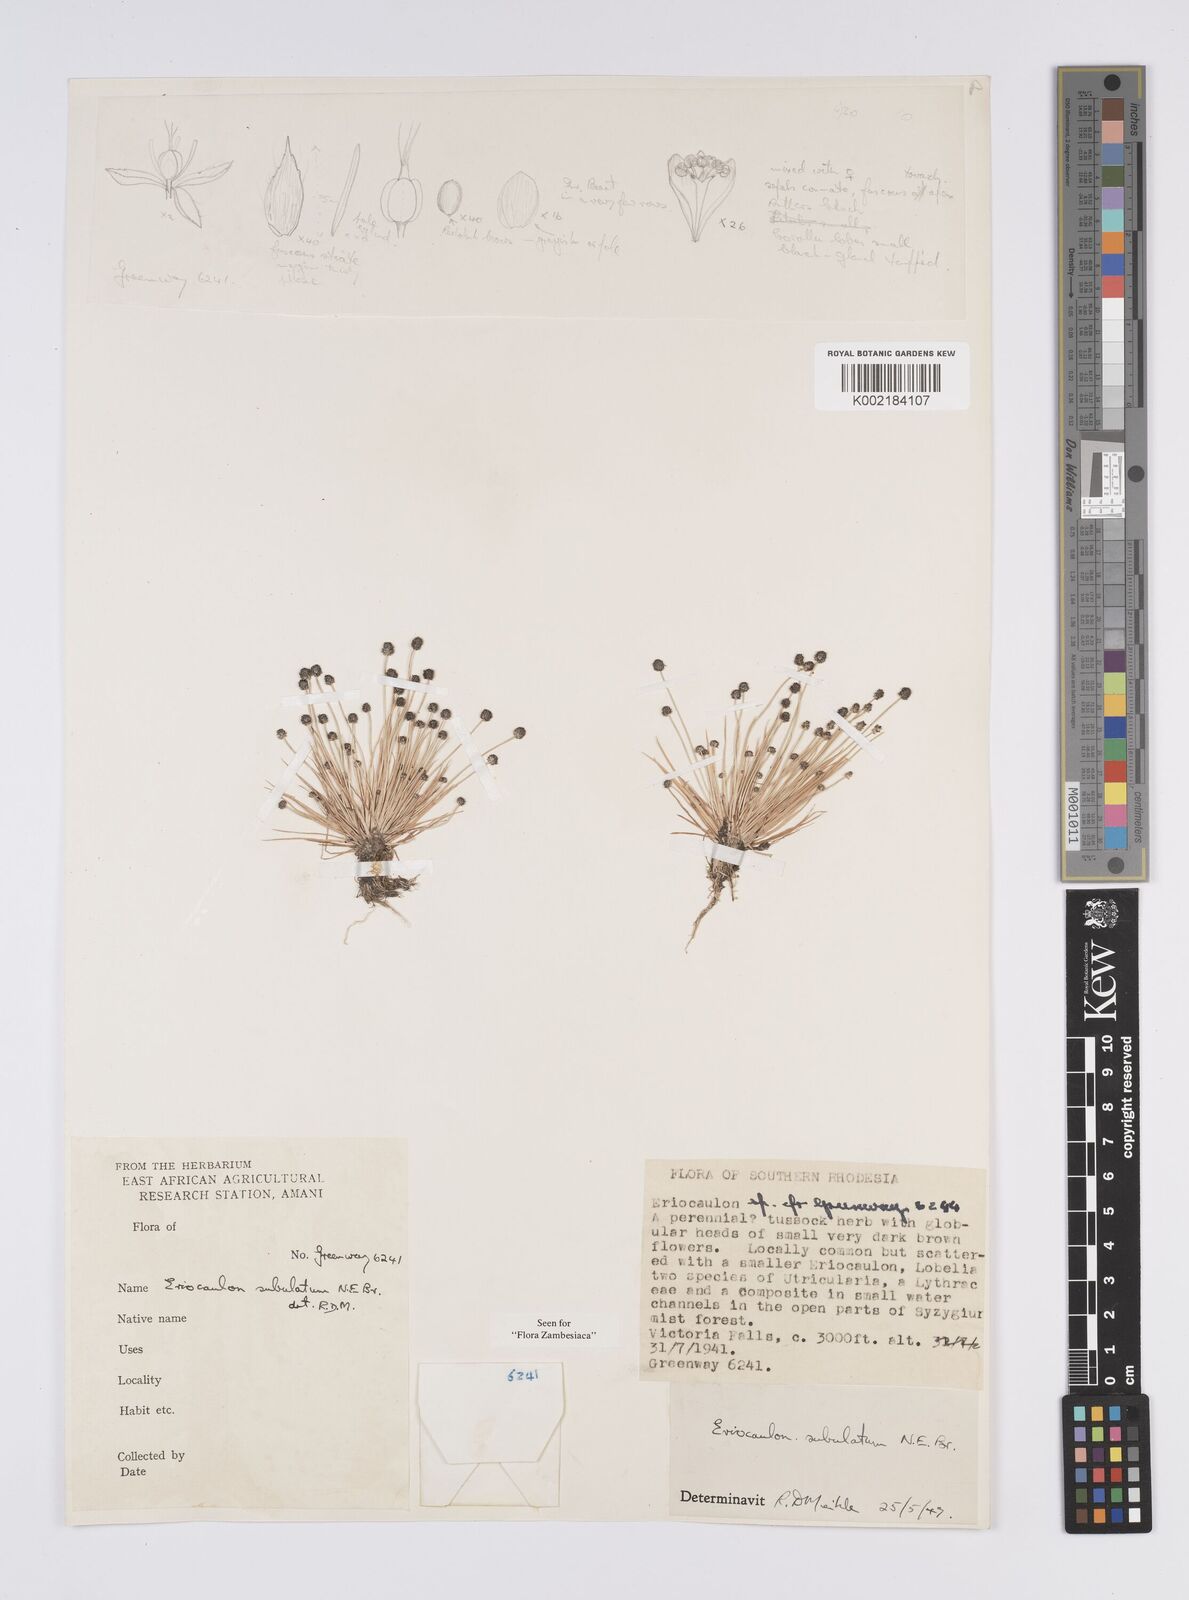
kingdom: Plantae
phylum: Tracheophyta
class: Liliopsida
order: Poales
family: Eriocaulaceae
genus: Eriocaulon
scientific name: Eriocaulon abyssinicum
